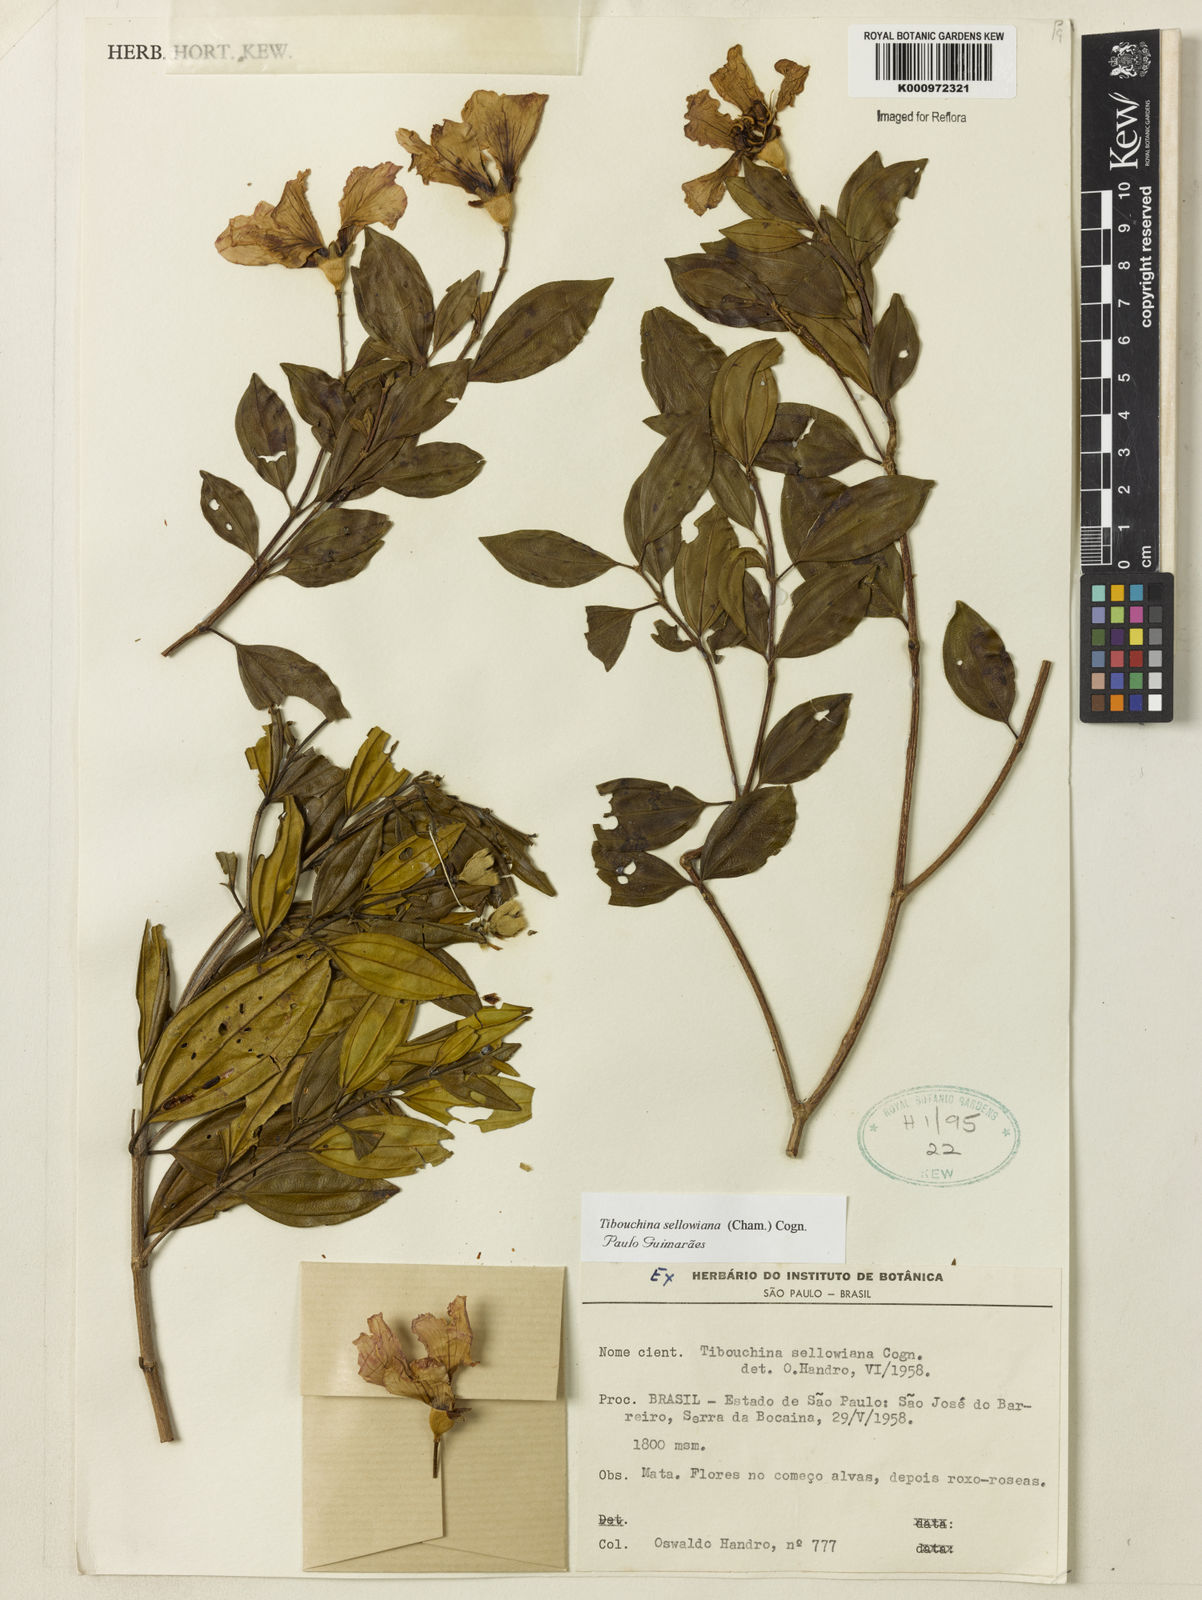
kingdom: Plantae
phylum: Tracheophyta
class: Magnoliopsida
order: Myrtales
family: Melastomataceae
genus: Pleroma
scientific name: Pleroma sellowianum
